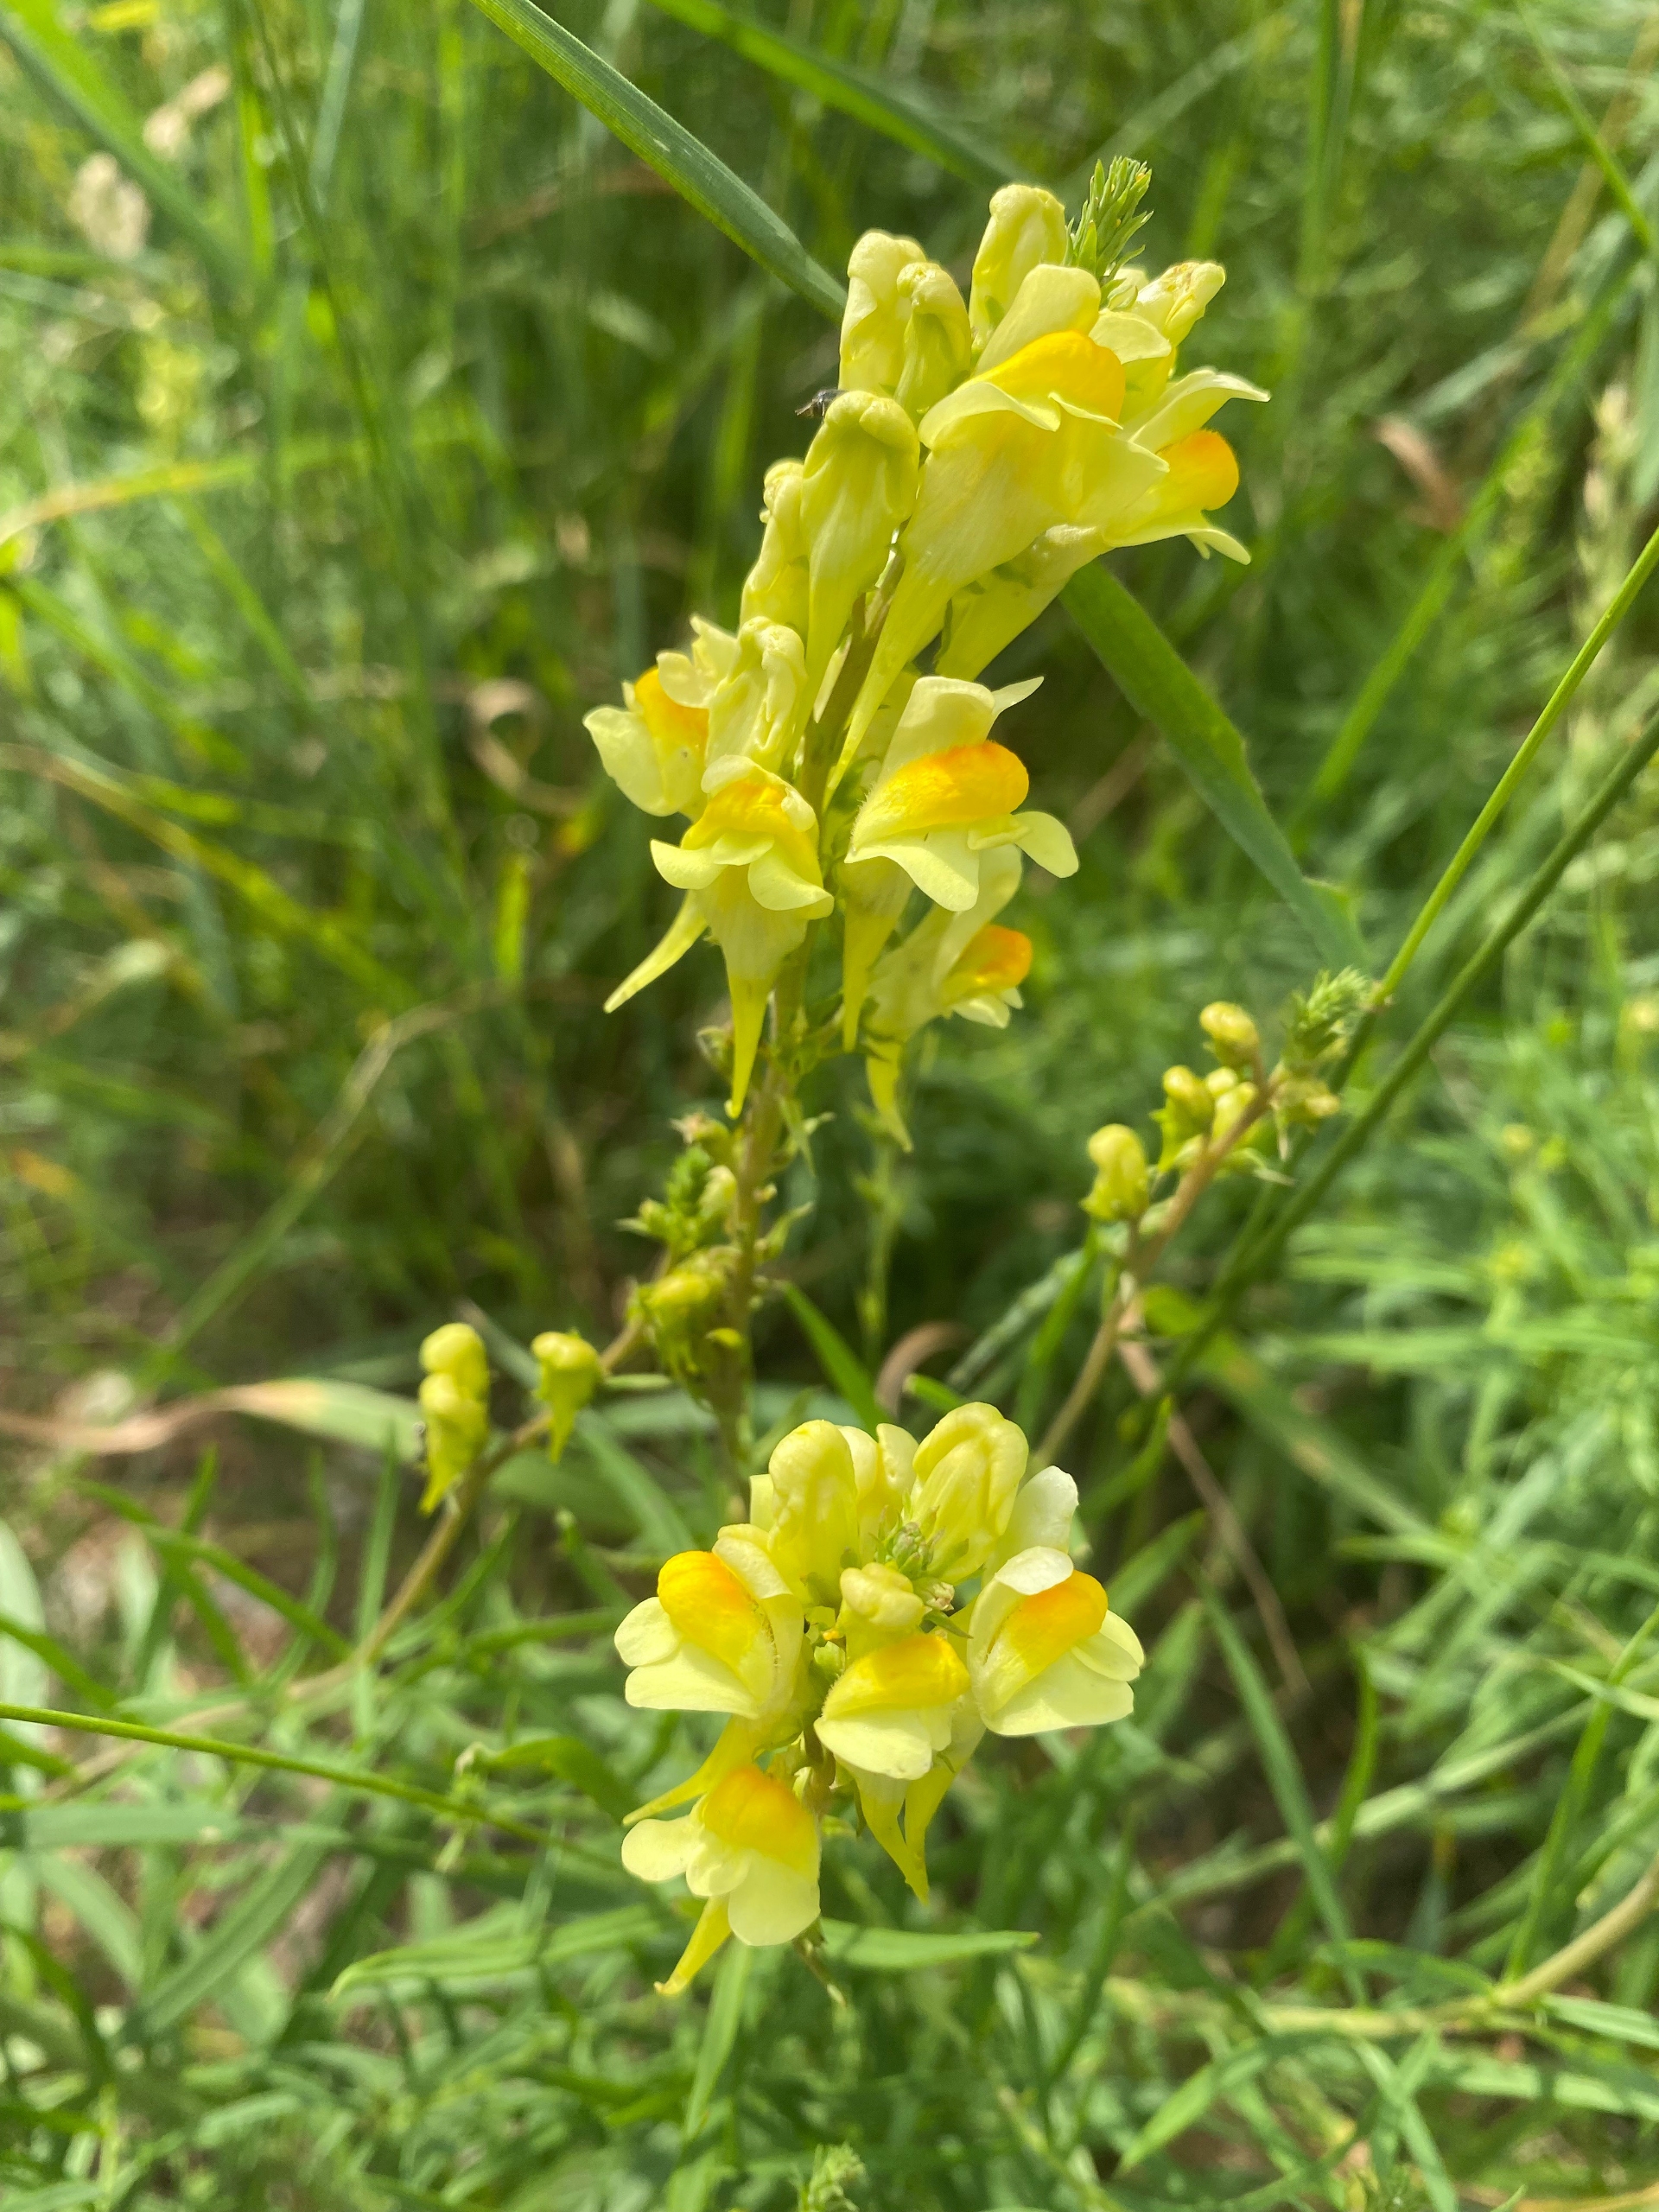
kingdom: Plantae
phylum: Tracheophyta
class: Magnoliopsida
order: Lamiales
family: Plantaginaceae
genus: Linaria
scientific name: Linaria vulgaris
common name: Almindelig torskemund
